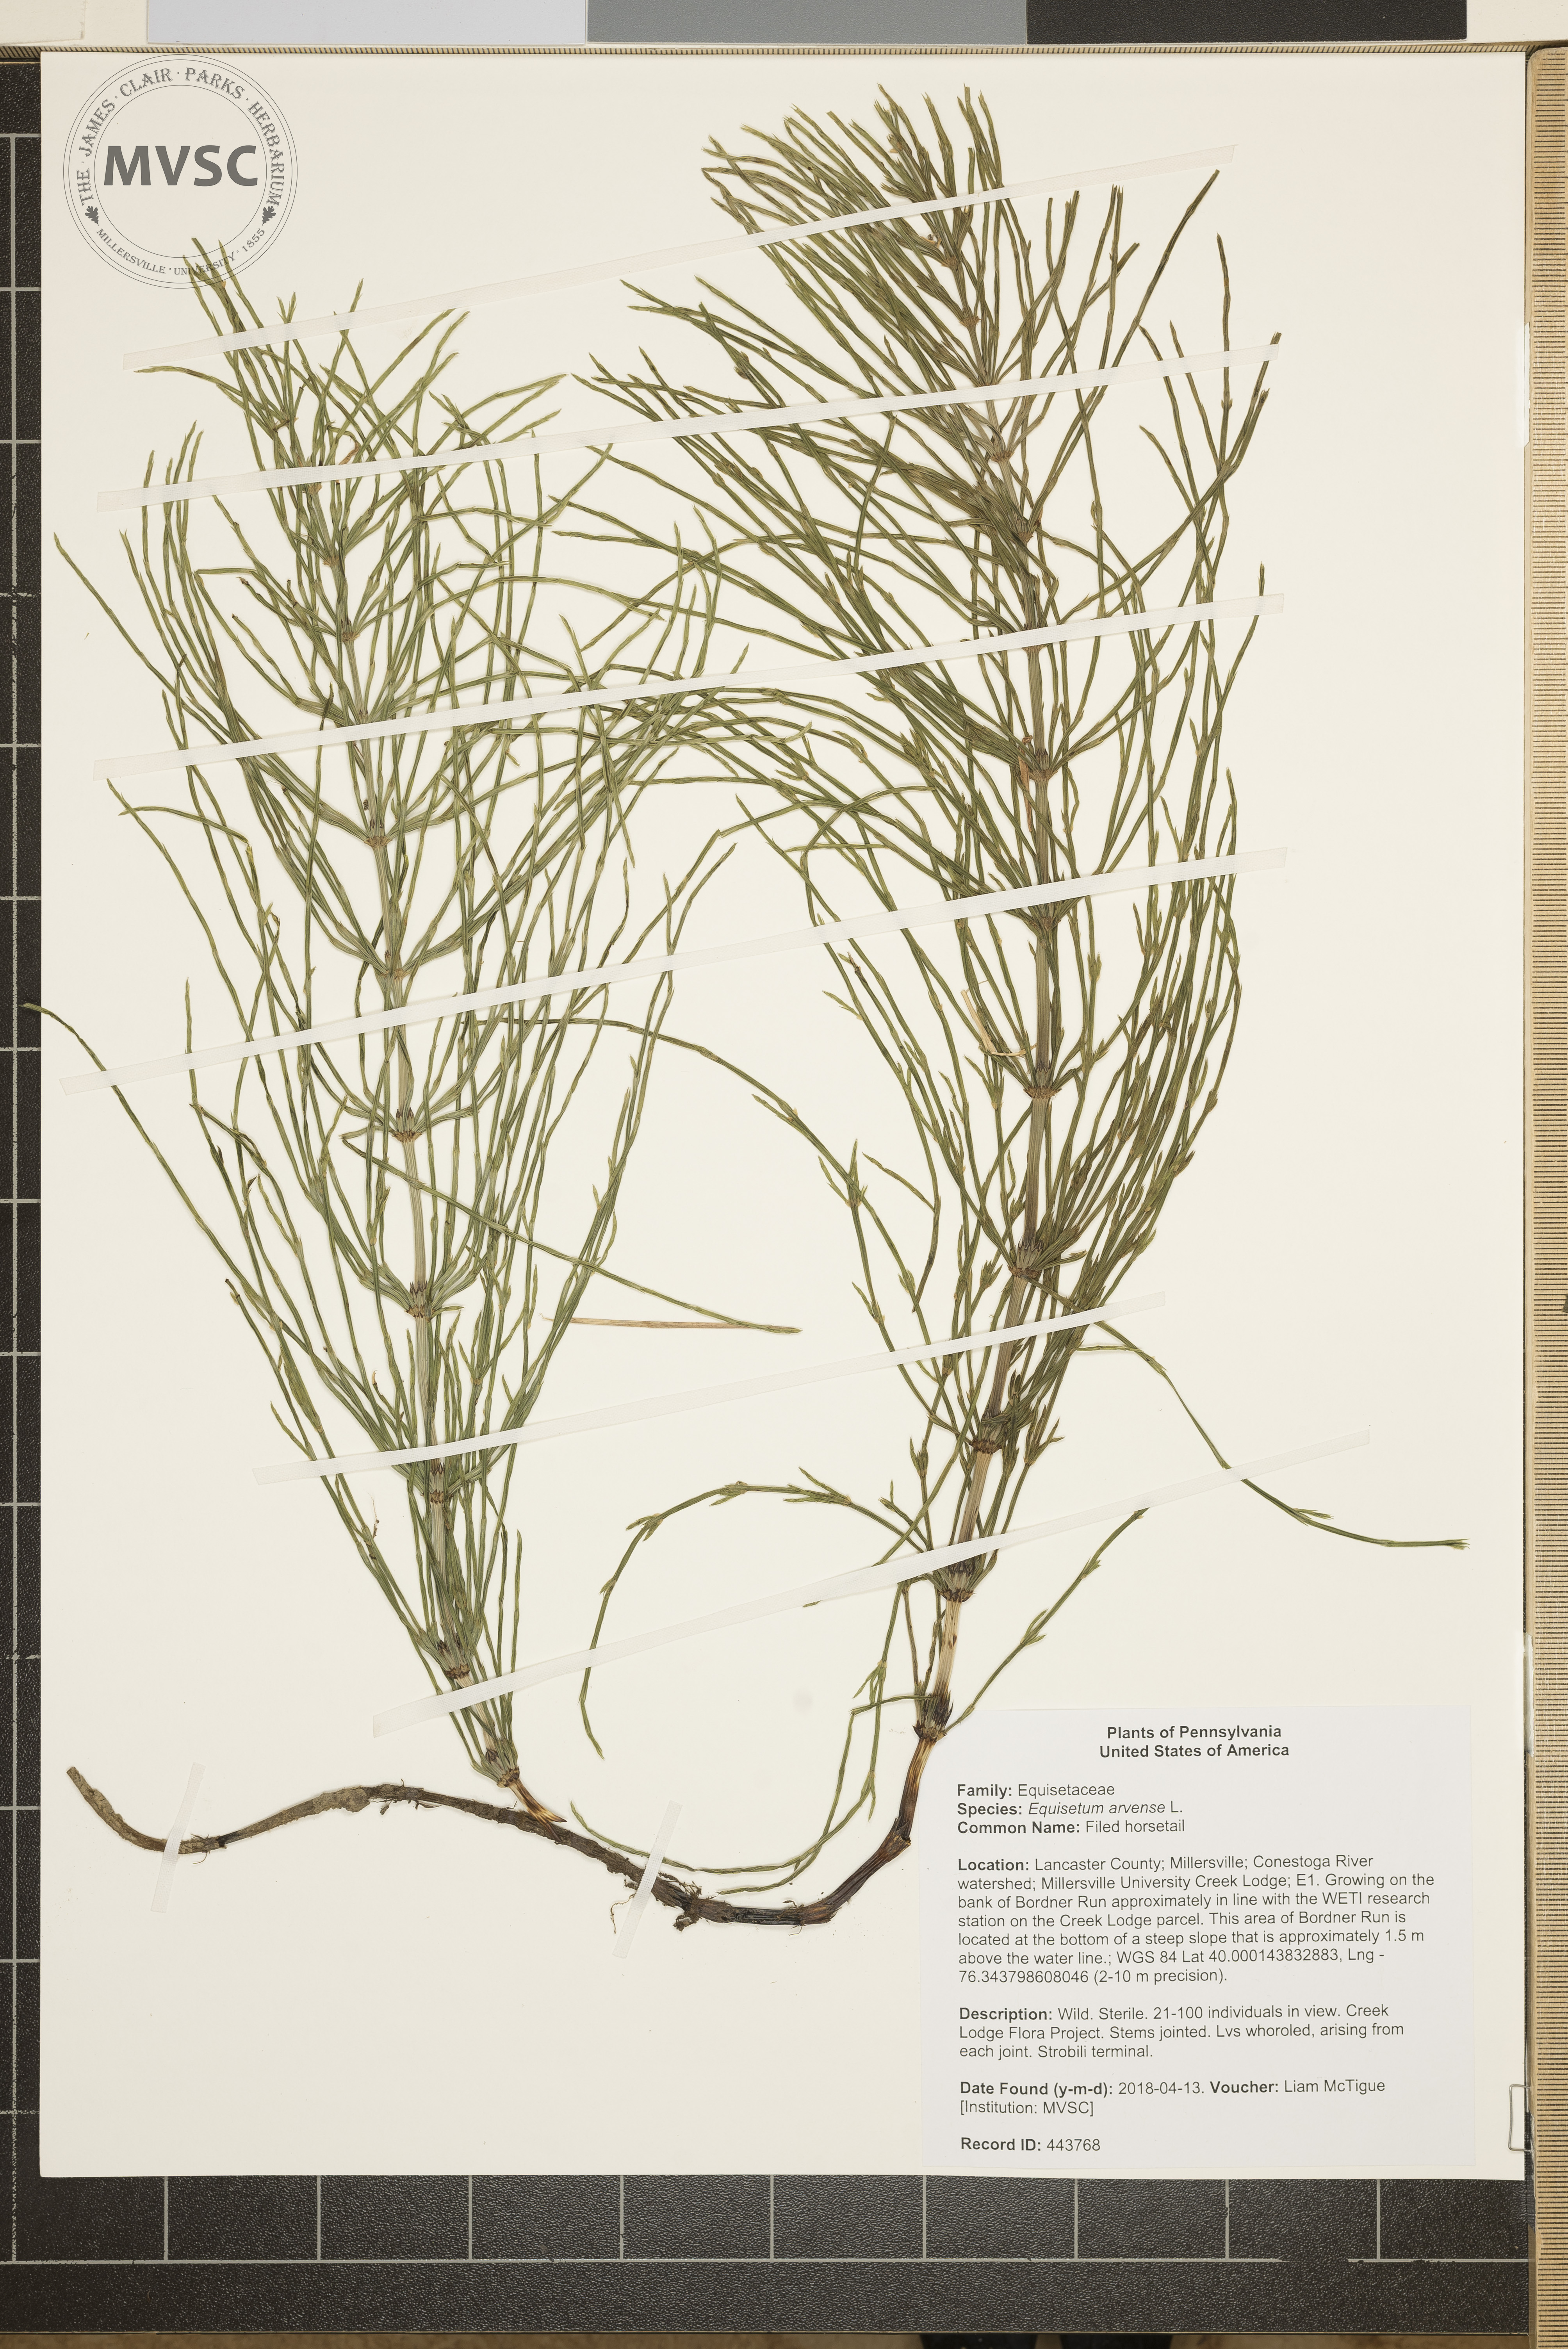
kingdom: Plantae
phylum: Tracheophyta
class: Polypodiopsida
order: Equisetales
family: Equisetaceae
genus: Equisetum
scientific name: Equisetum arvense
